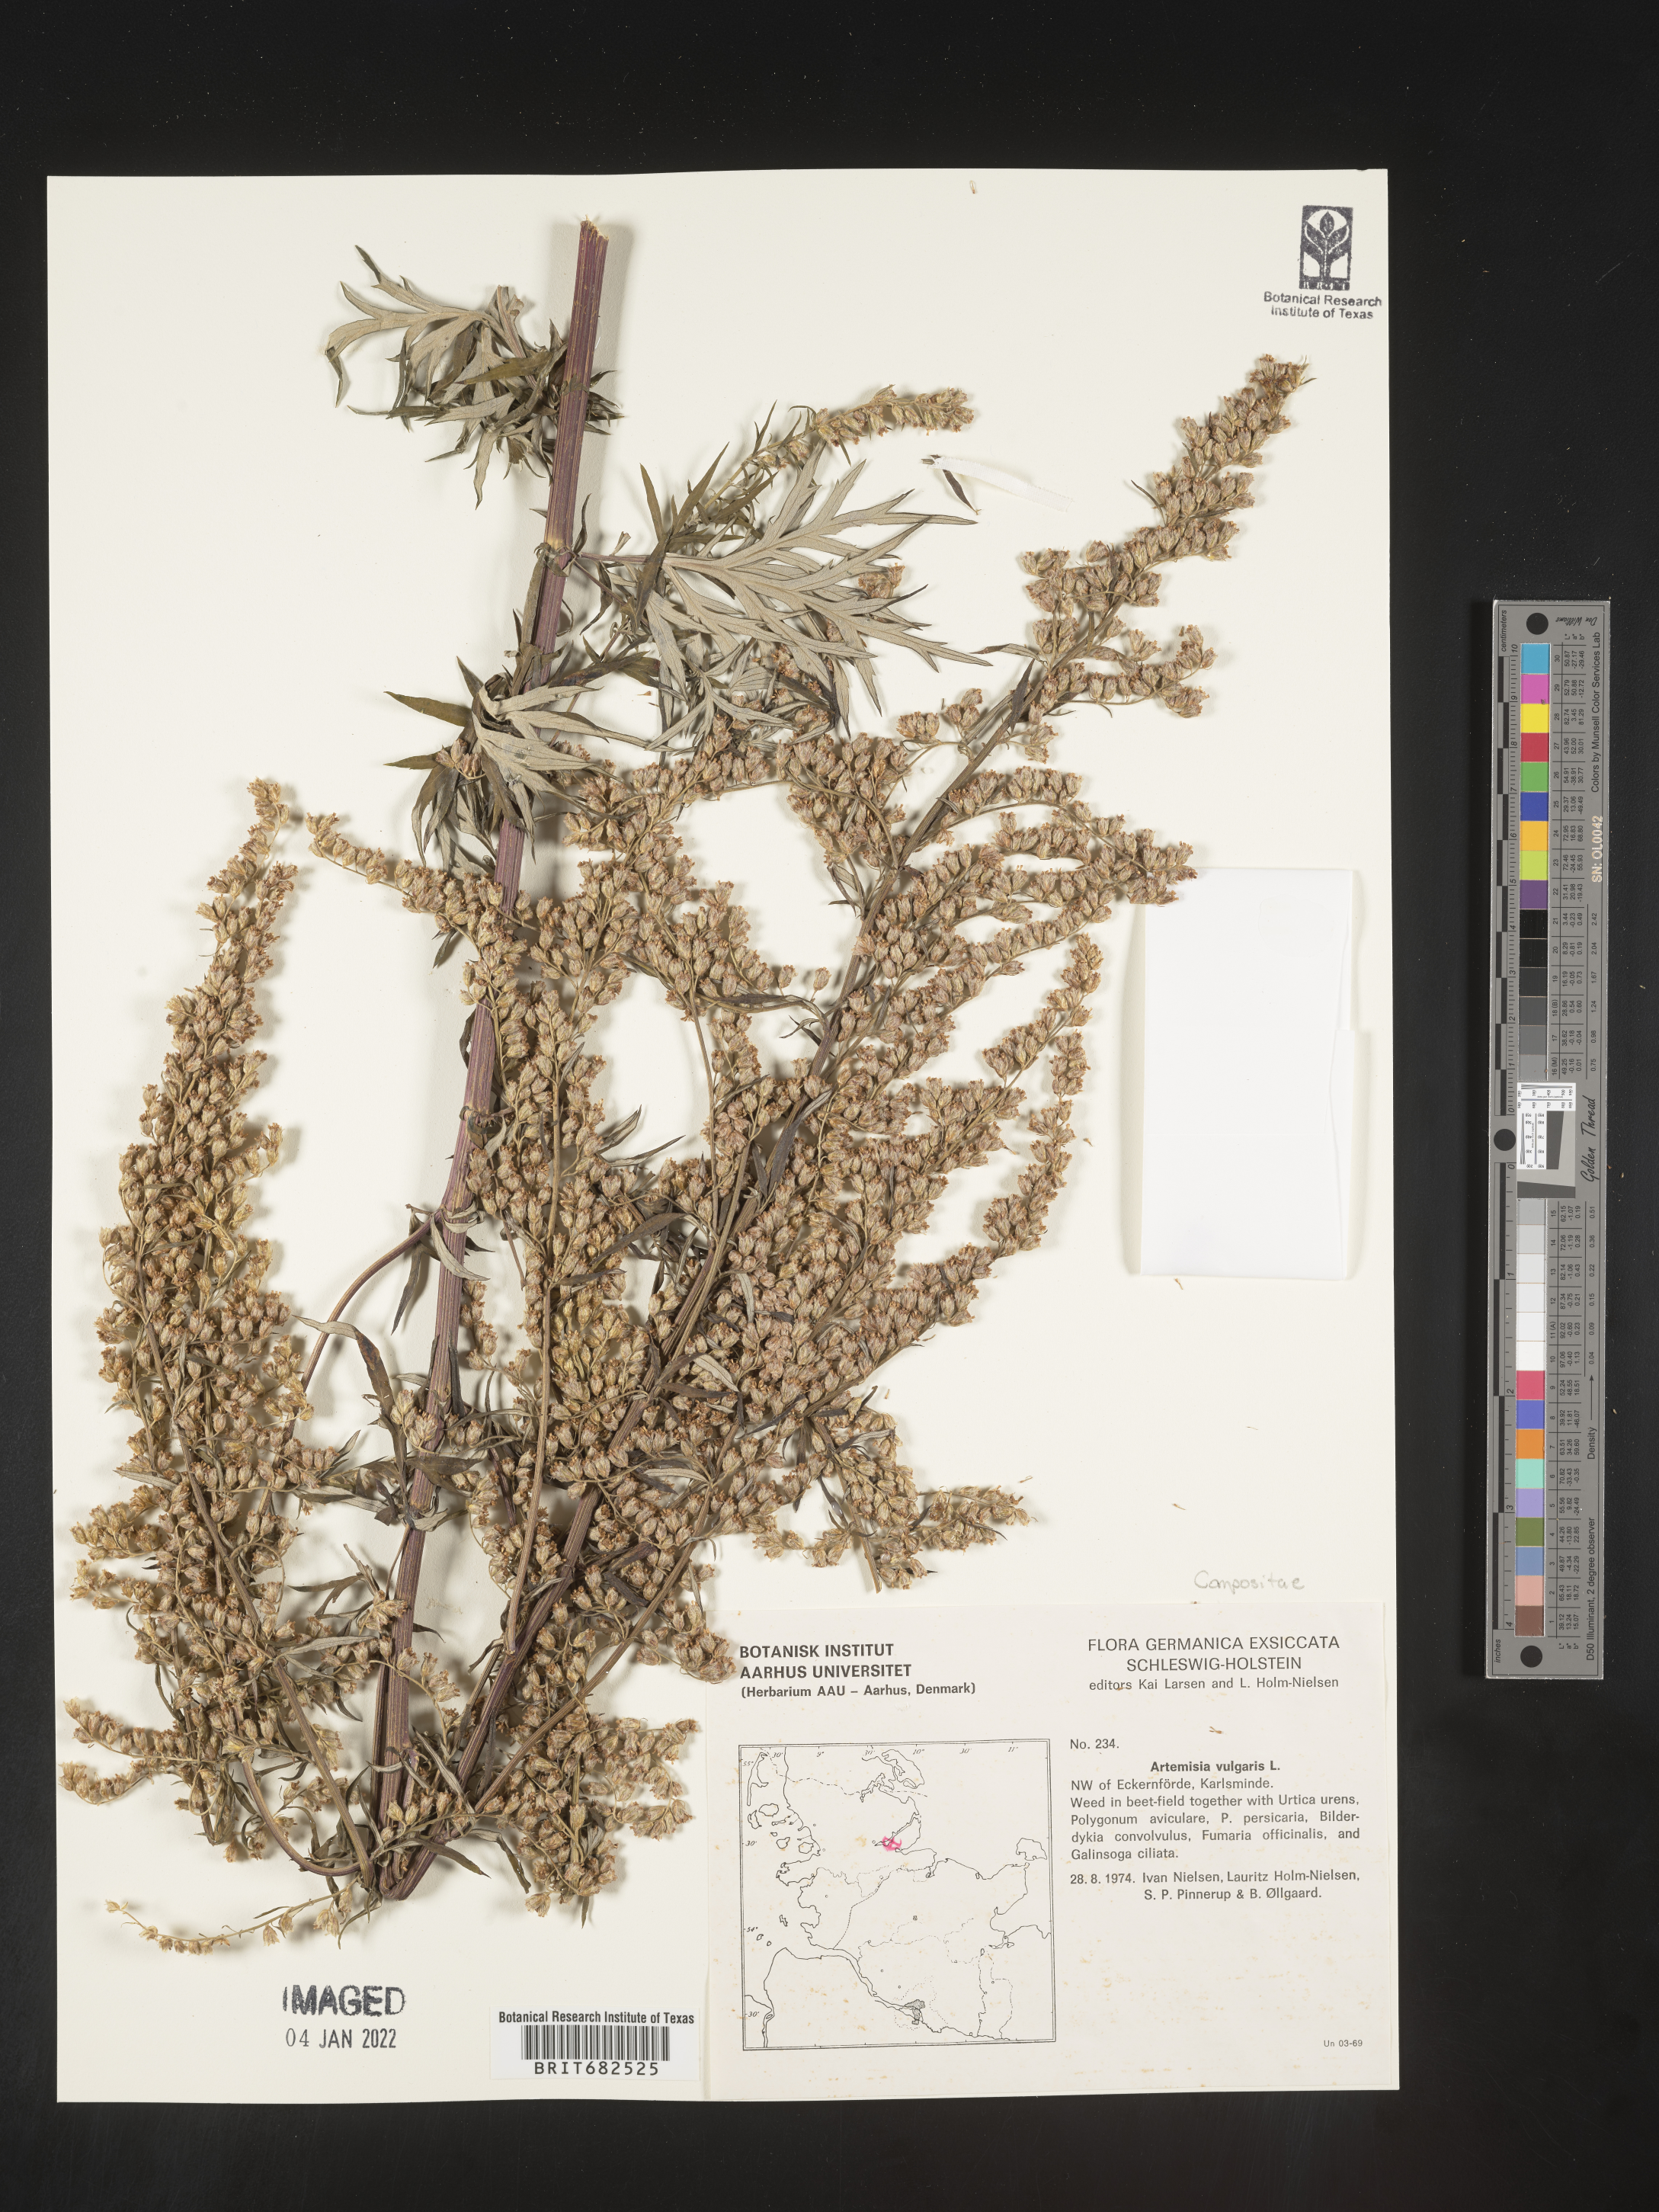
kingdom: Plantae
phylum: Tracheophyta
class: Magnoliopsida
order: Asterales
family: Asteraceae
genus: Artemisia
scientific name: Artemisia
